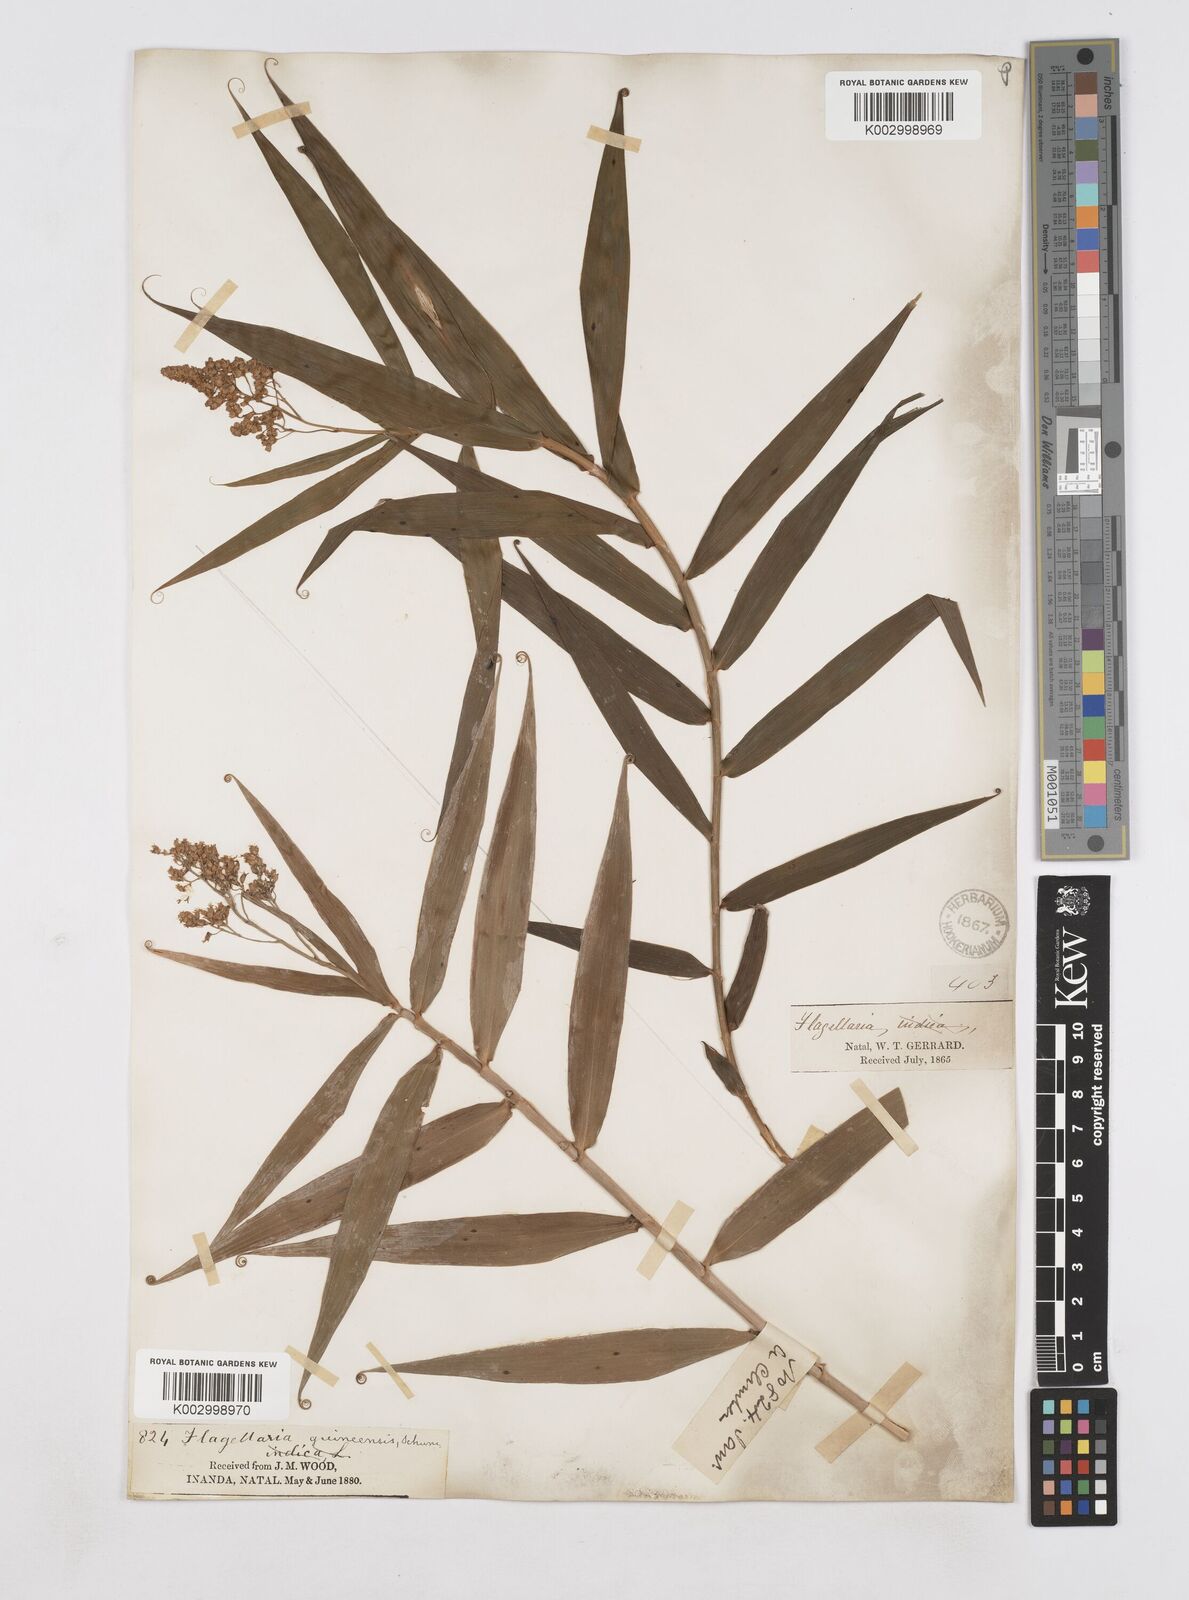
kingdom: Plantae
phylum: Tracheophyta
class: Liliopsida
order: Poales
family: Flagellariaceae
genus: Flagellaria
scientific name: Flagellaria guineensis
